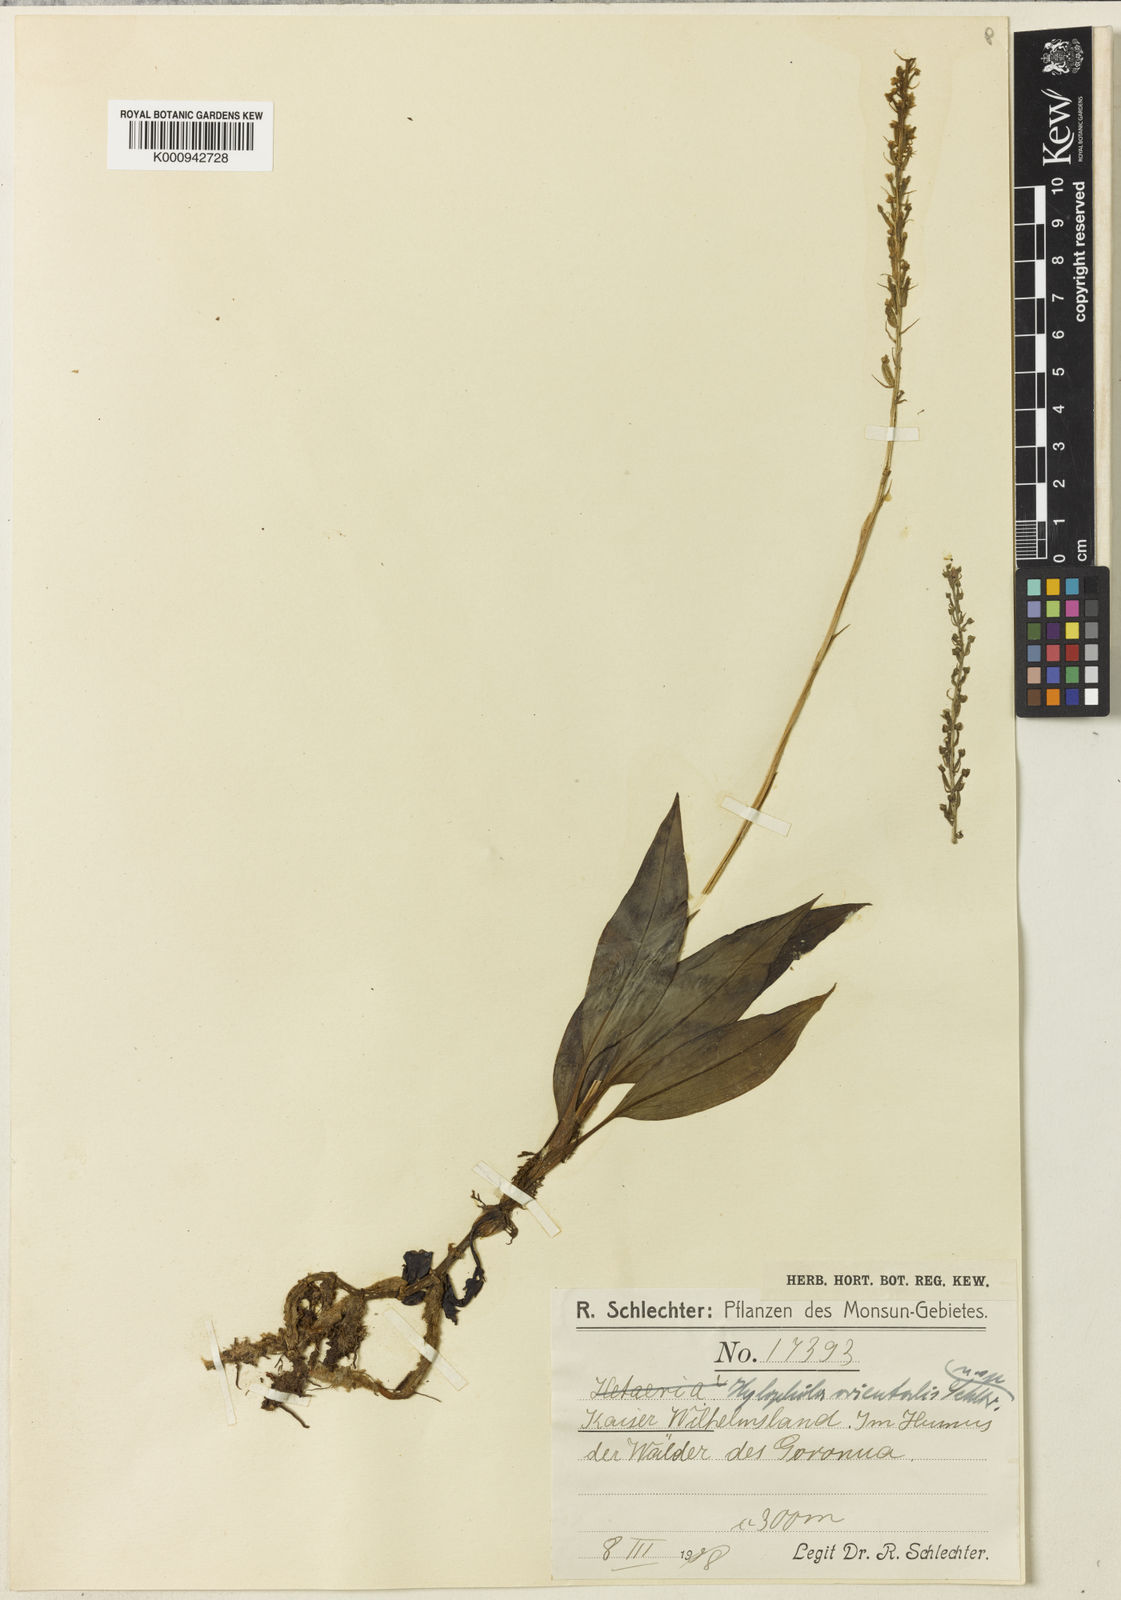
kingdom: Plantae
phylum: Tracheophyta
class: Liliopsida
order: Asparagales
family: Orchidaceae
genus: Hylophila
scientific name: Hylophila mollis
